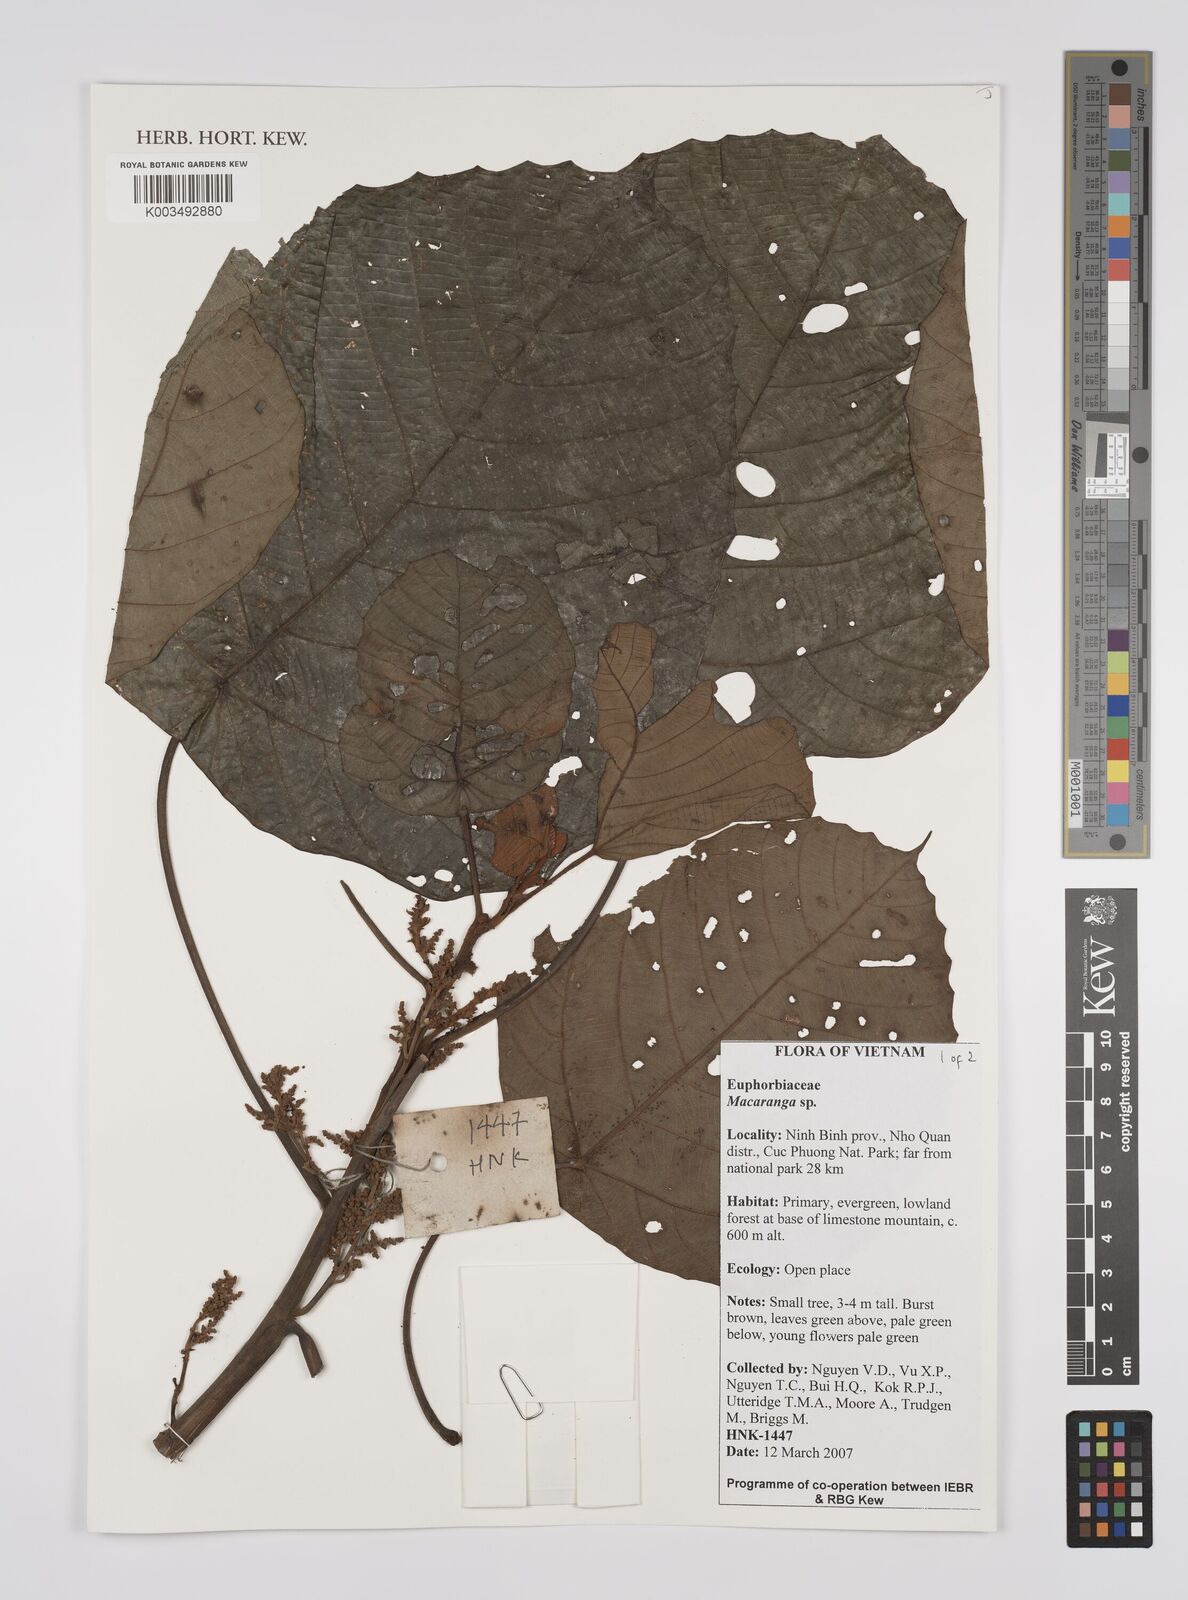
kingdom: Plantae
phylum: Tracheophyta
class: Magnoliopsida
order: Malpighiales
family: Euphorbiaceae
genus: Macaranga
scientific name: Macaranga
